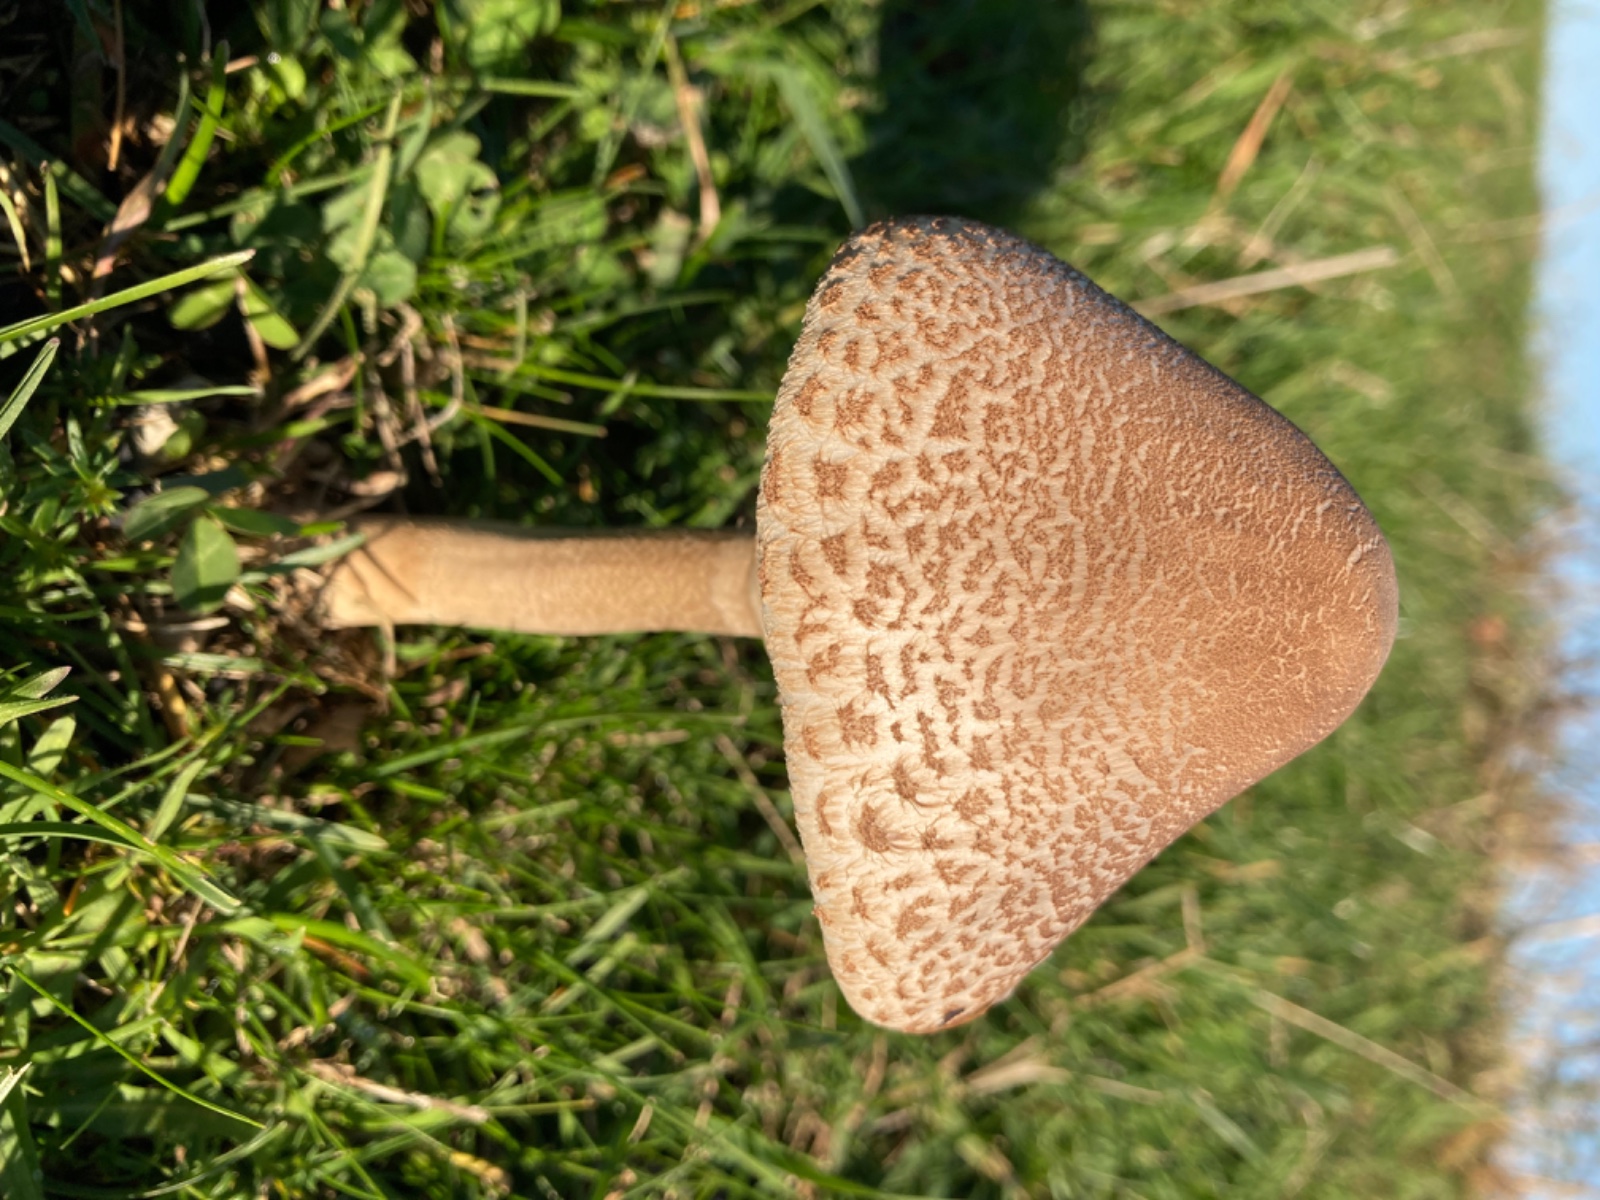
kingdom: Fungi
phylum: Basidiomycota
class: Agaricomycetes
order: Agaricales
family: Agaricaceae
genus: Macrolepiota
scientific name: Macrolepiota
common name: kæmpeparasolhat
